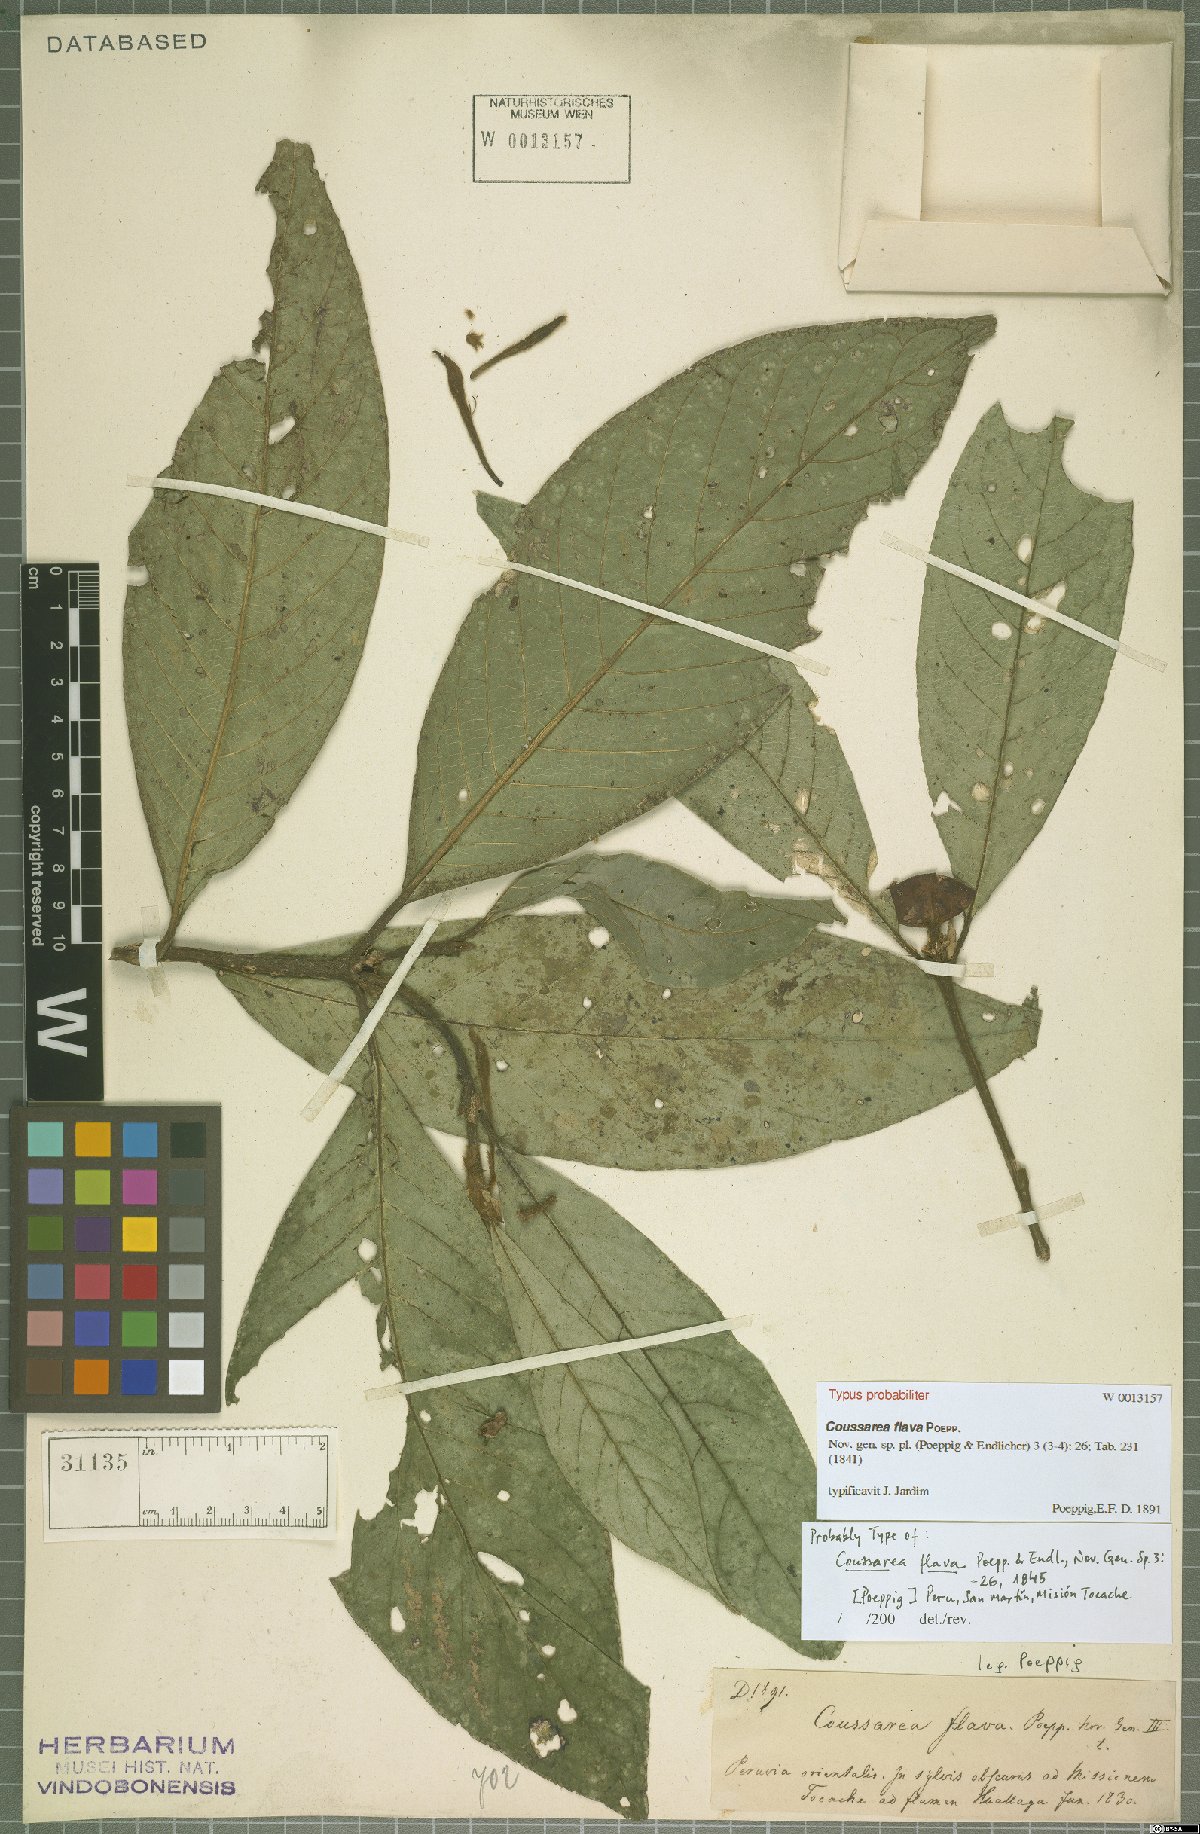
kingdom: Plantae
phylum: Tracheophyta
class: Magnoliopsida
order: Gentianales
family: Rubiaceae
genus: Coussarea
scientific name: Coussarea flava
